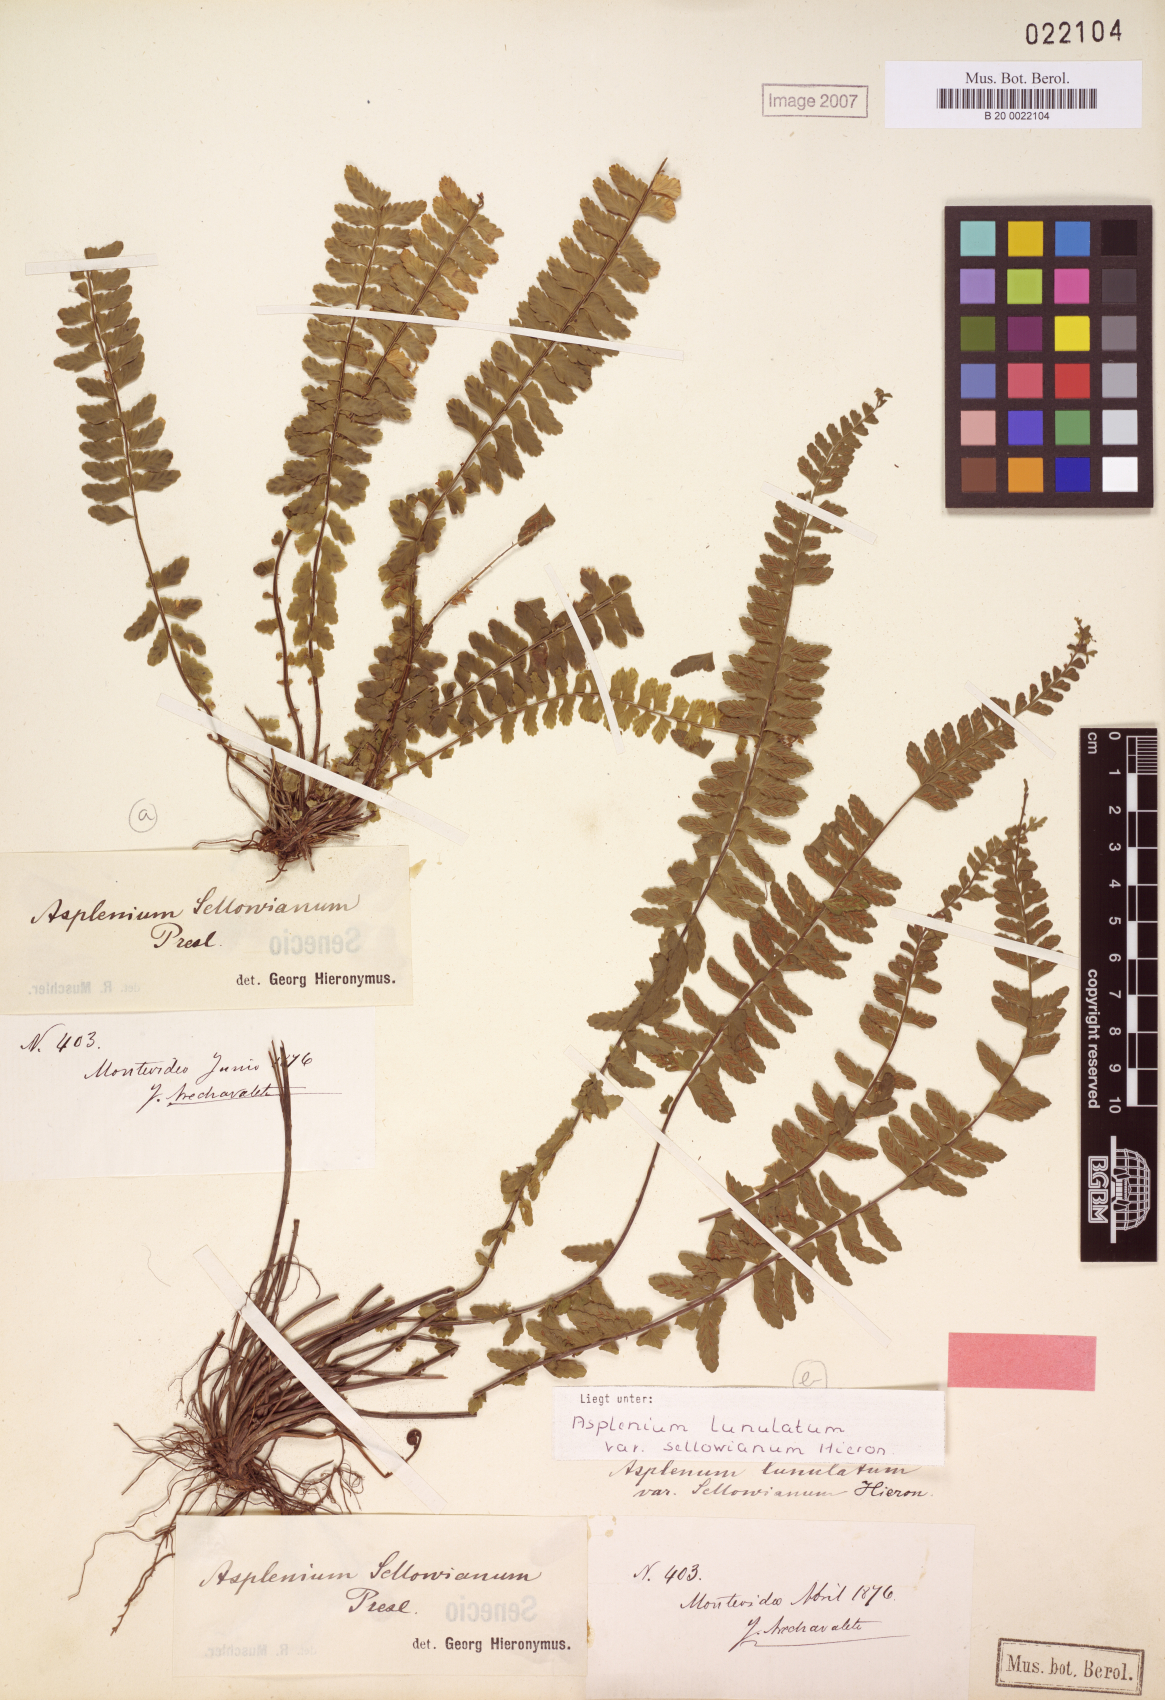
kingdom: Plantae
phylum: Tracheophyta
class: Polypodiopsida
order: Polypodiales
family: Aspleniaceae
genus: Asplenium
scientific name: Asplenium sellowianum
